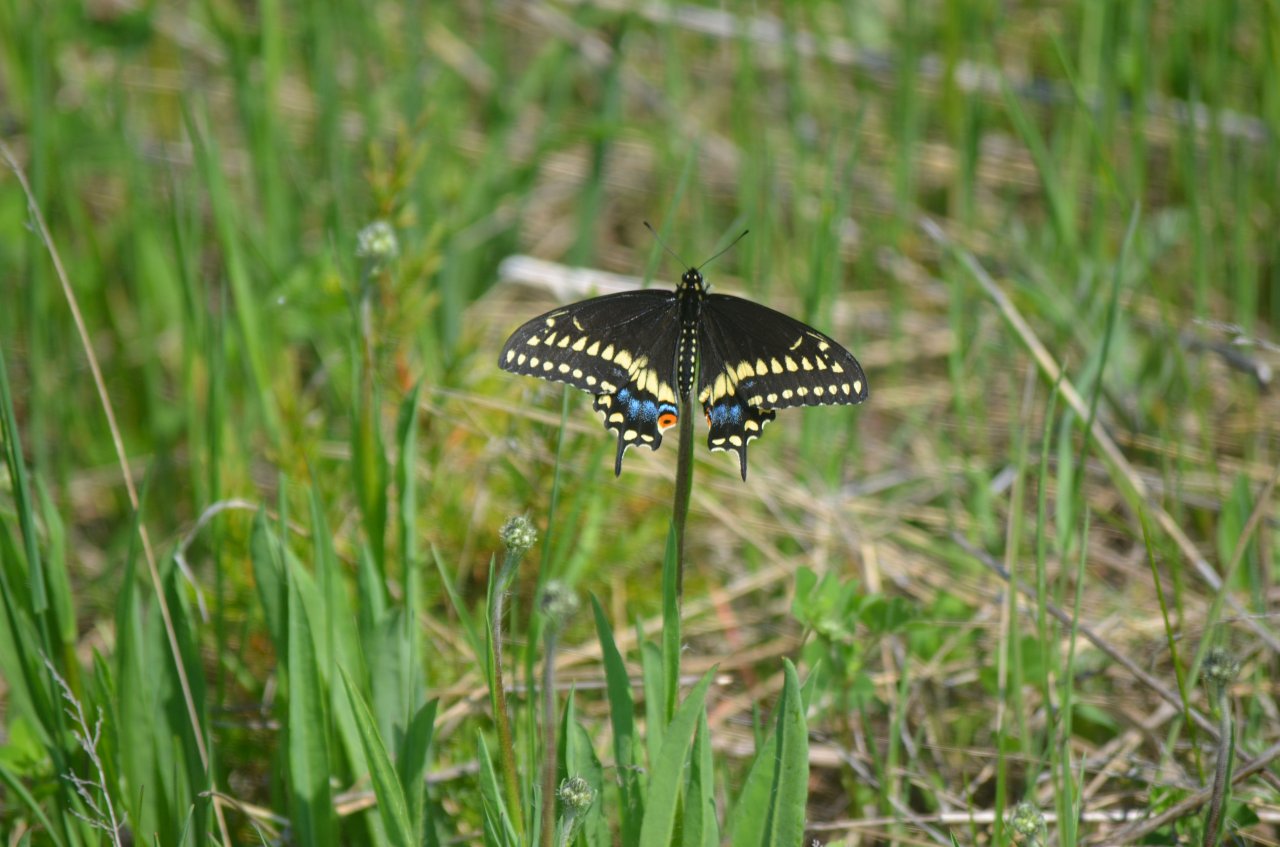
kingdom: Animalia
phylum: Arthropoda
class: Insecta
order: Lepidoptera
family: Papilionidae
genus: Papilio
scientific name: Papilio polyxenes
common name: Black Swallowtail
